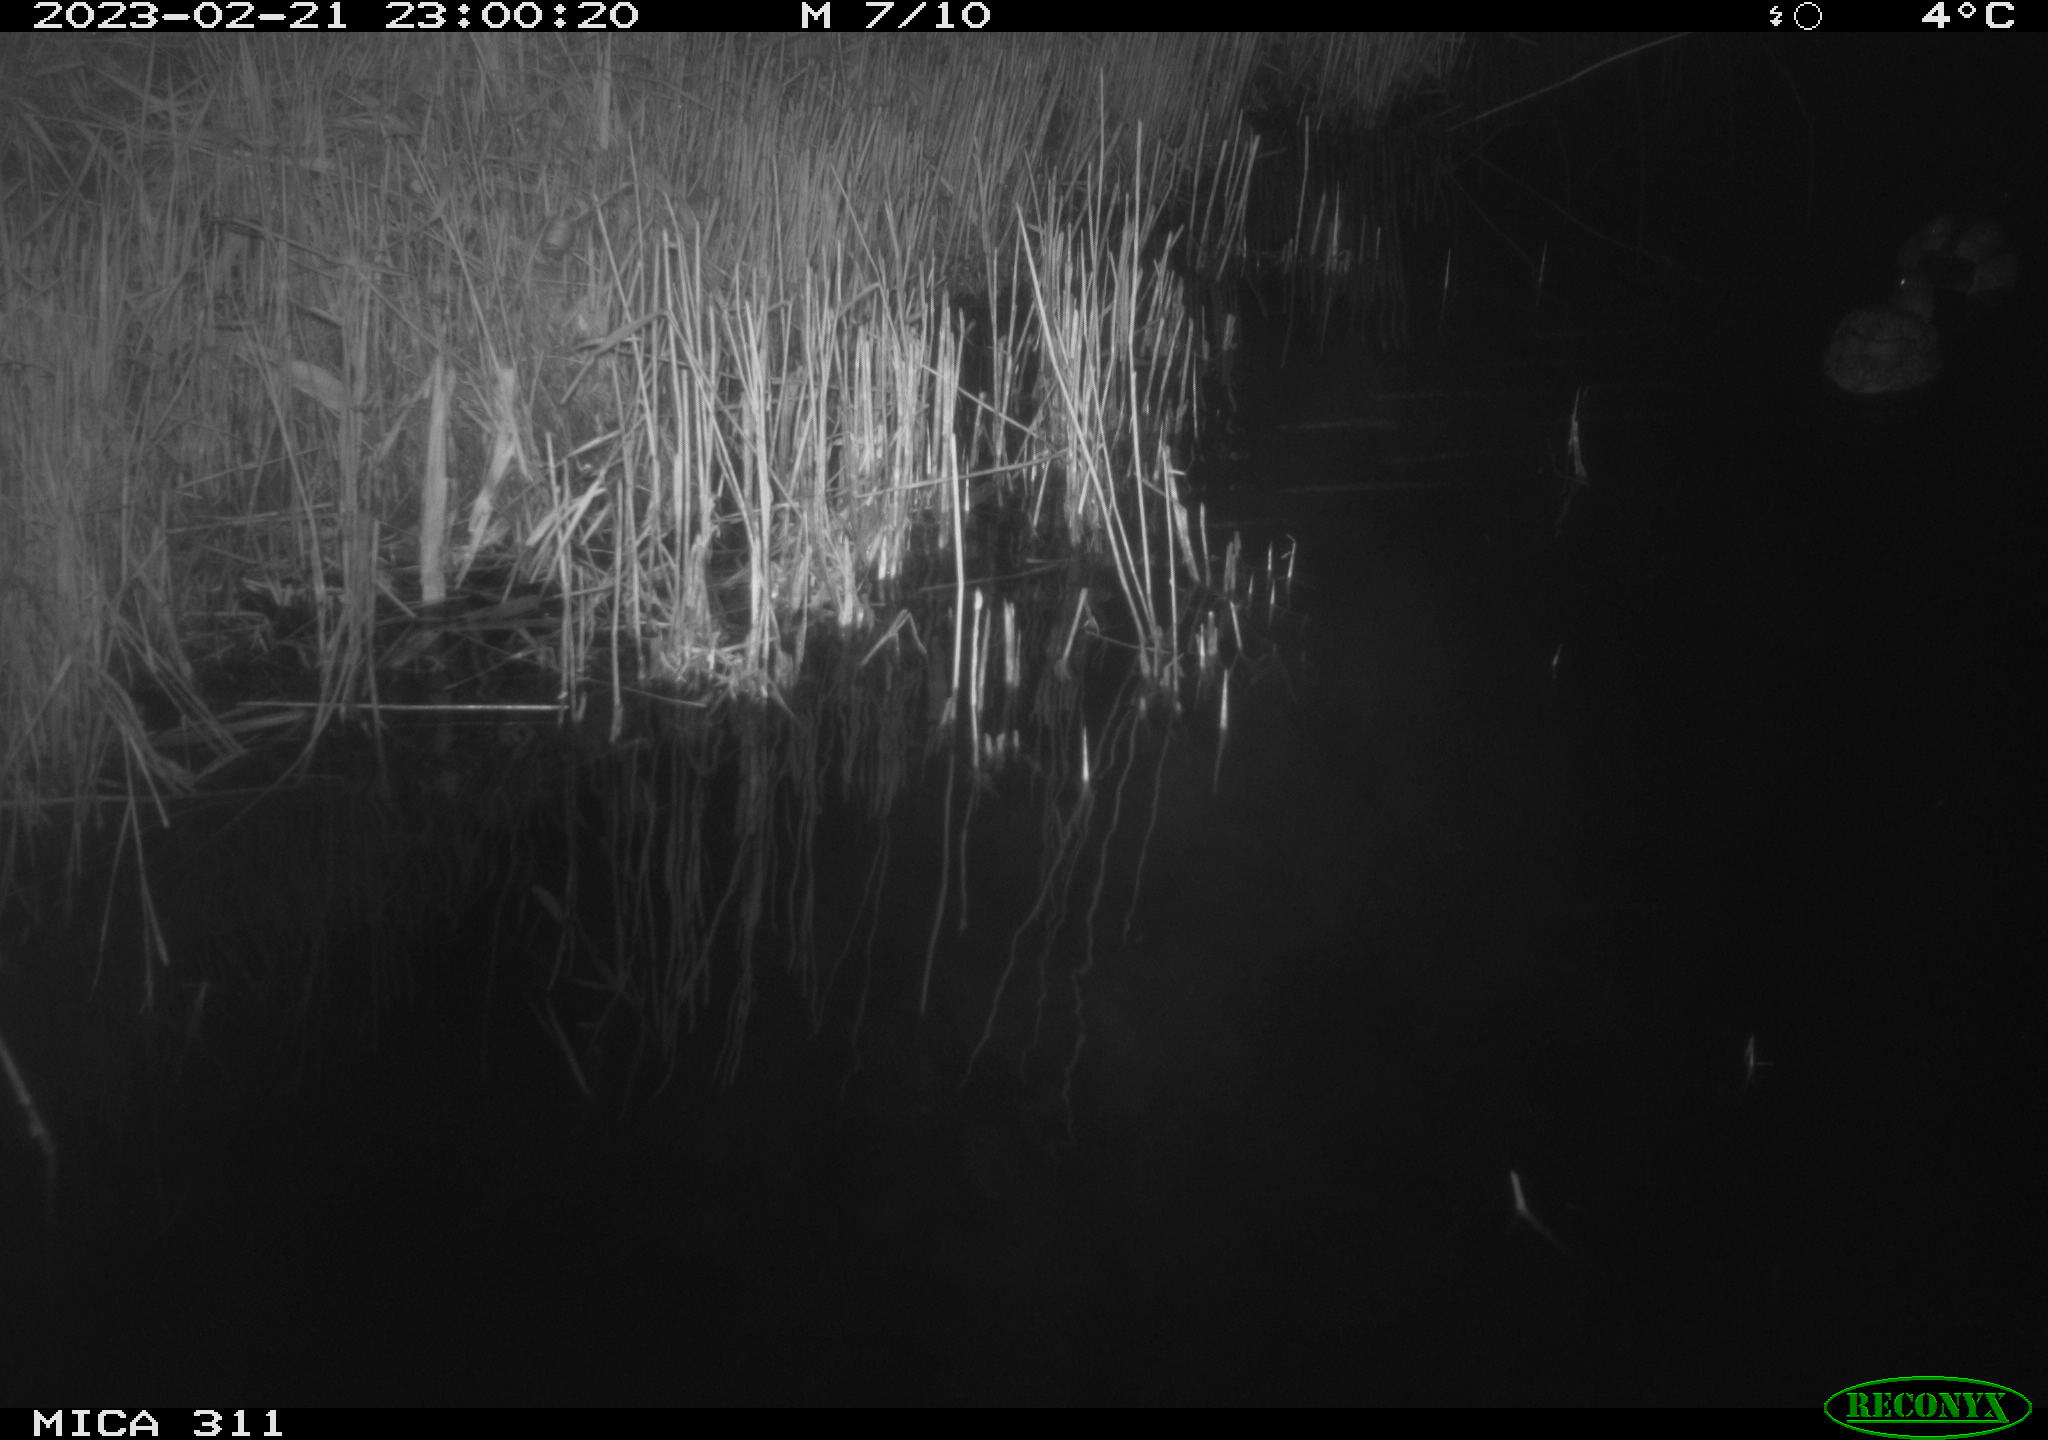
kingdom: Animalia
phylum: Chordata
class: Aves
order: Gruiformes
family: Rallidae
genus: Fulica
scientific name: Fulica atra
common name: Eurasian coot
